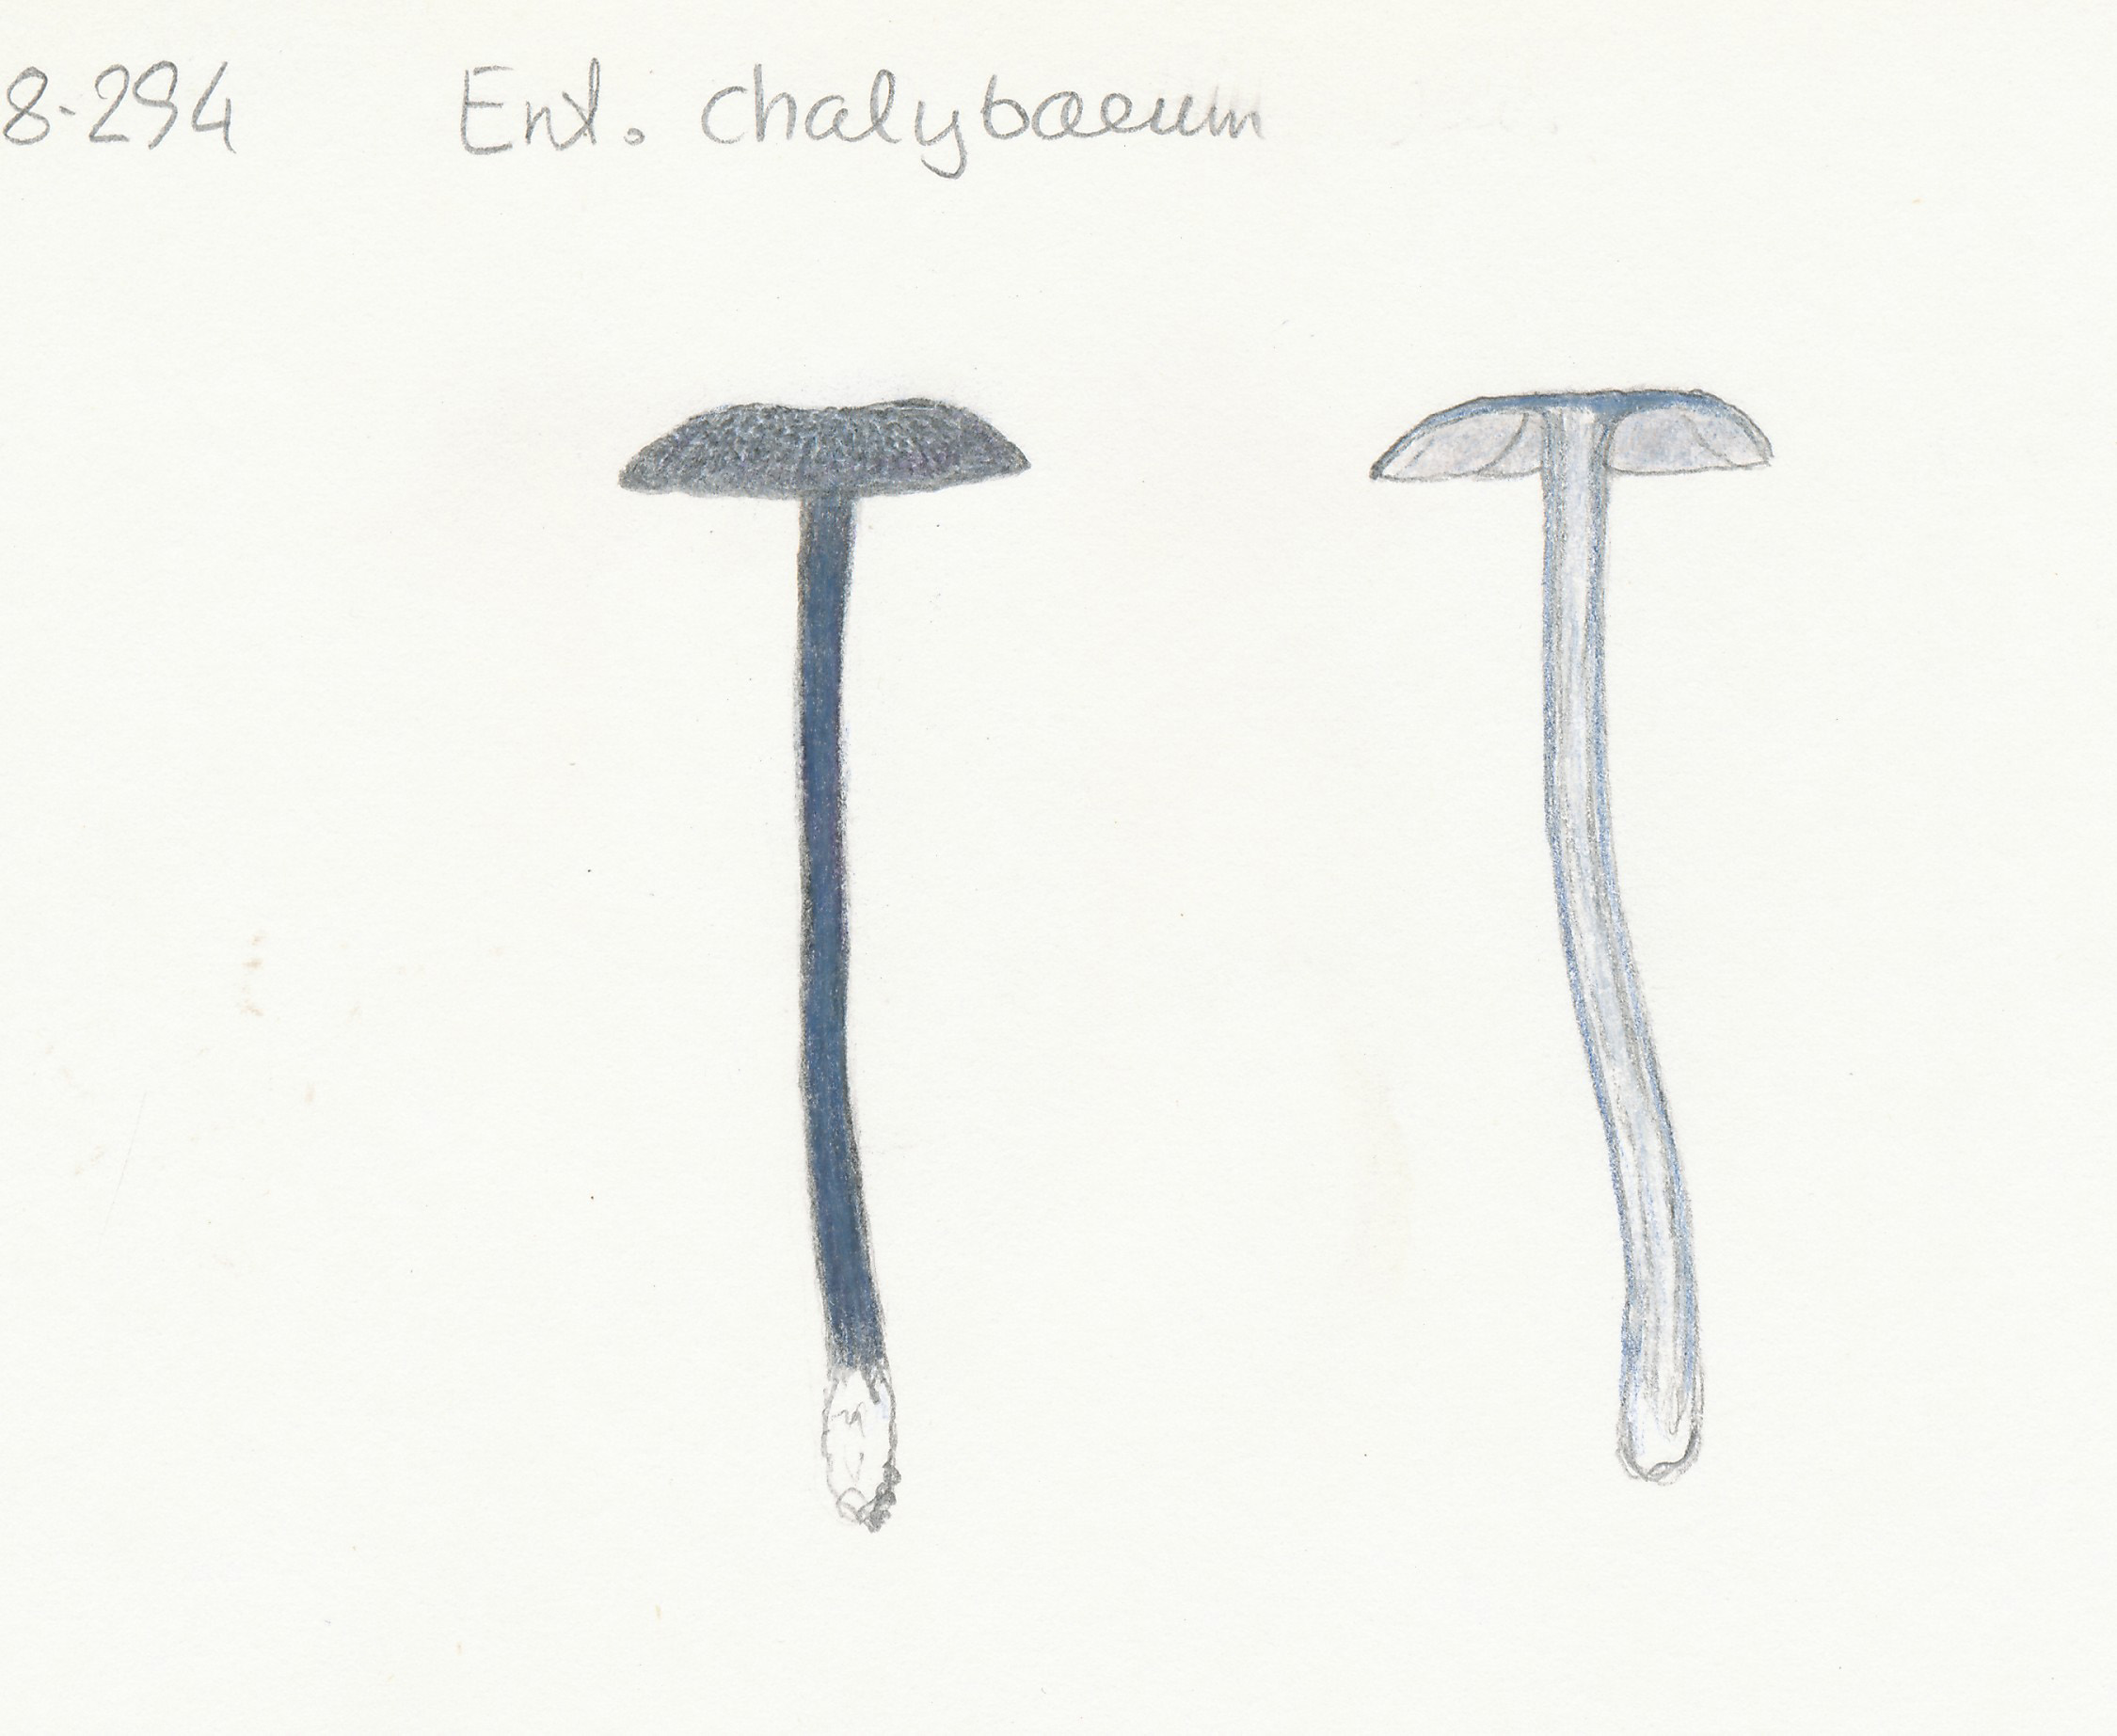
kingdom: Fungi
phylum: Basidiomycota
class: Agaricomycetes
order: Agaricales
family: Entolomataceae
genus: Entoloma
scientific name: Entoloma chalybeum
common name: blåbladet rødblad
